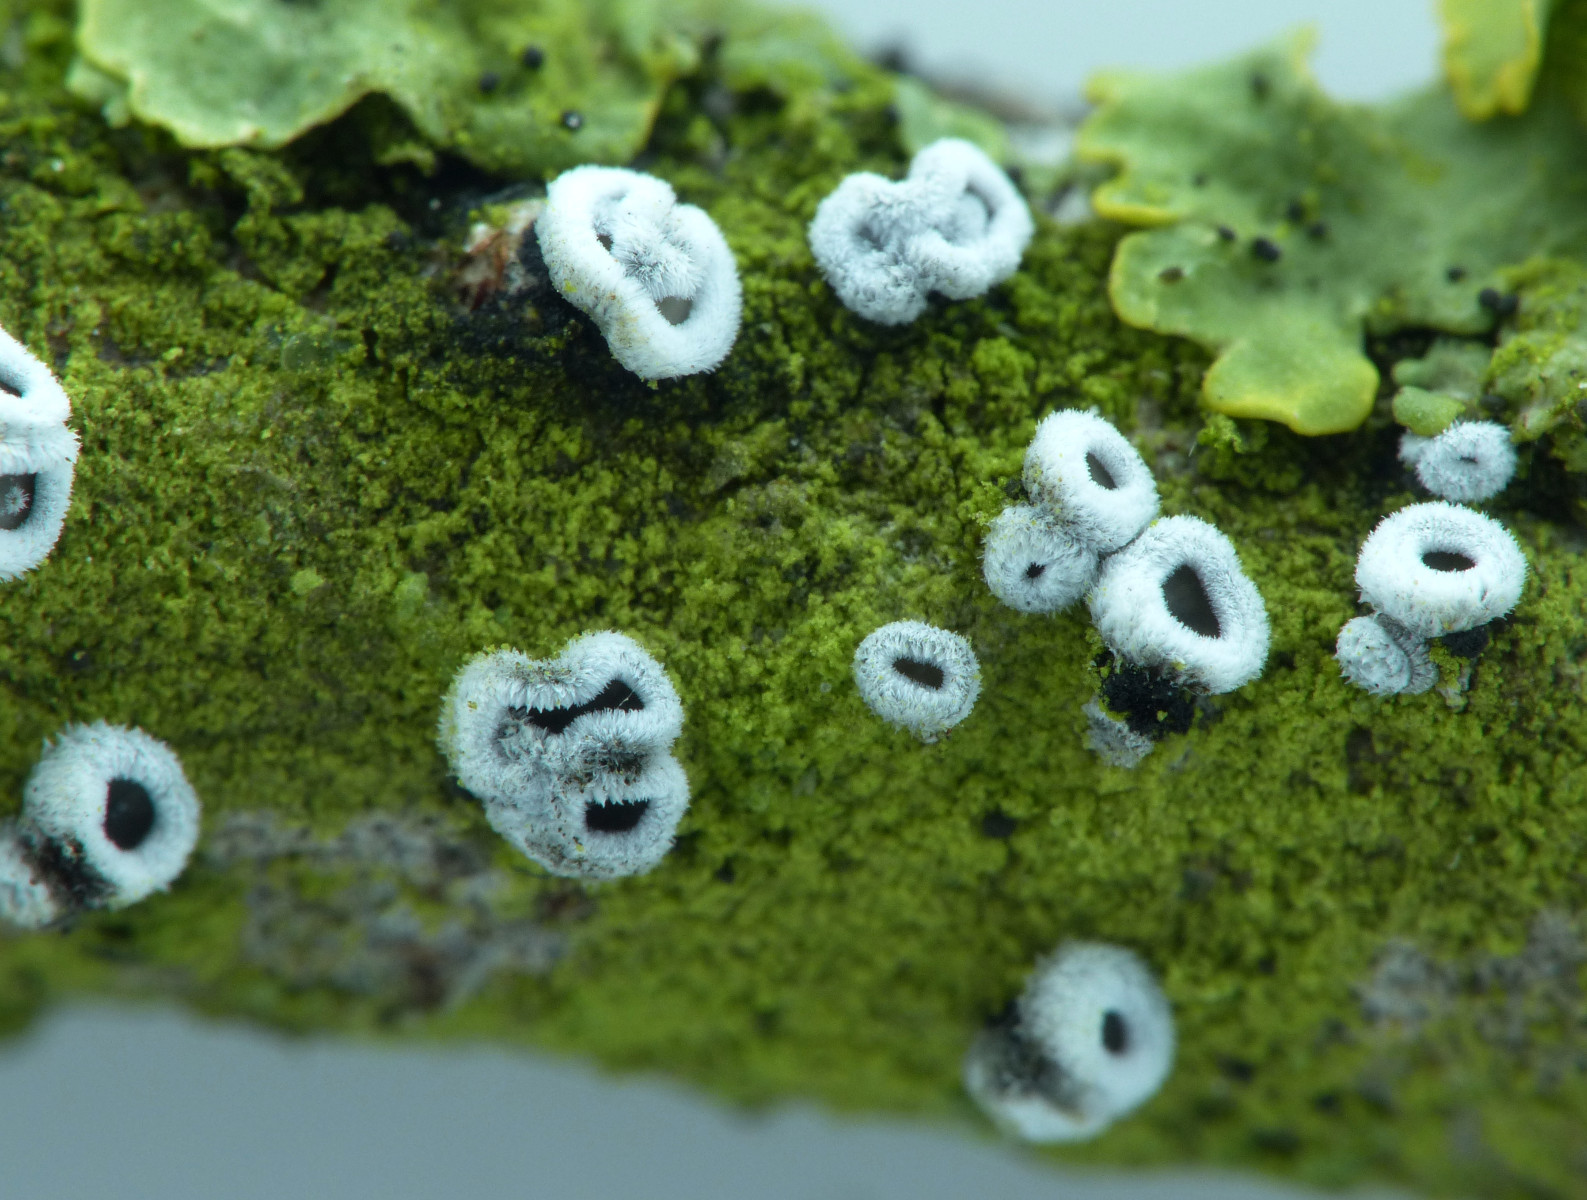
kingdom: Fungi
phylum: Basidiomycota
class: Agaricomycetes
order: Agaricales
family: Niaceae
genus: Lachnella
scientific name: Lachnella alboviolascens
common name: grå frynserede
